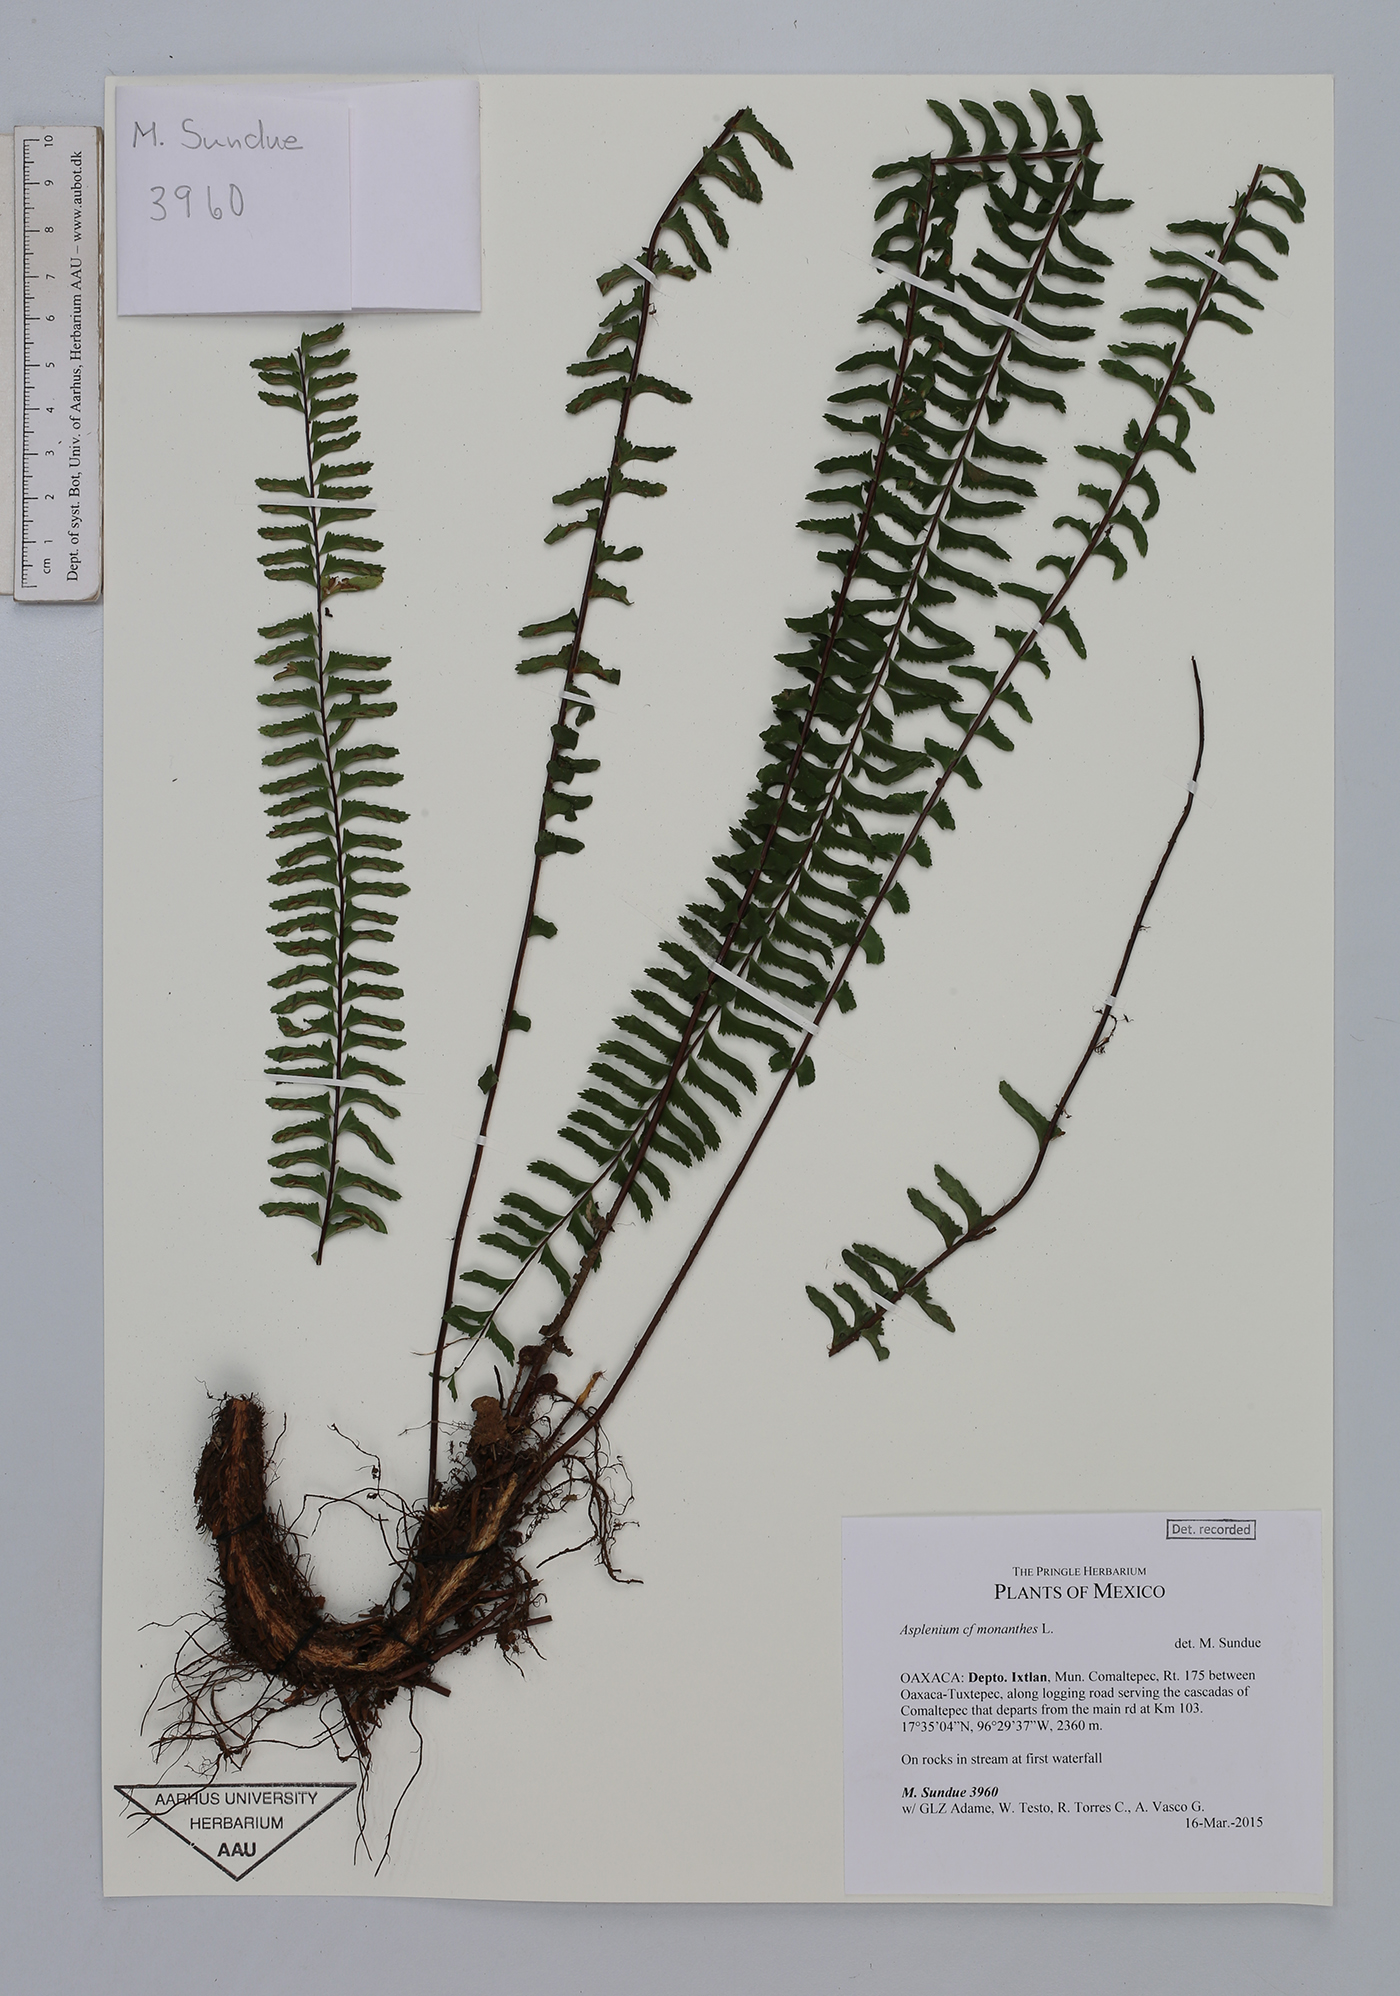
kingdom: Plantae
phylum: Tracheophyta
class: Polypodiopsida
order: Polypodiales
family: Aspleniaceae
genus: Asplenium
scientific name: Asplenium monanthes
